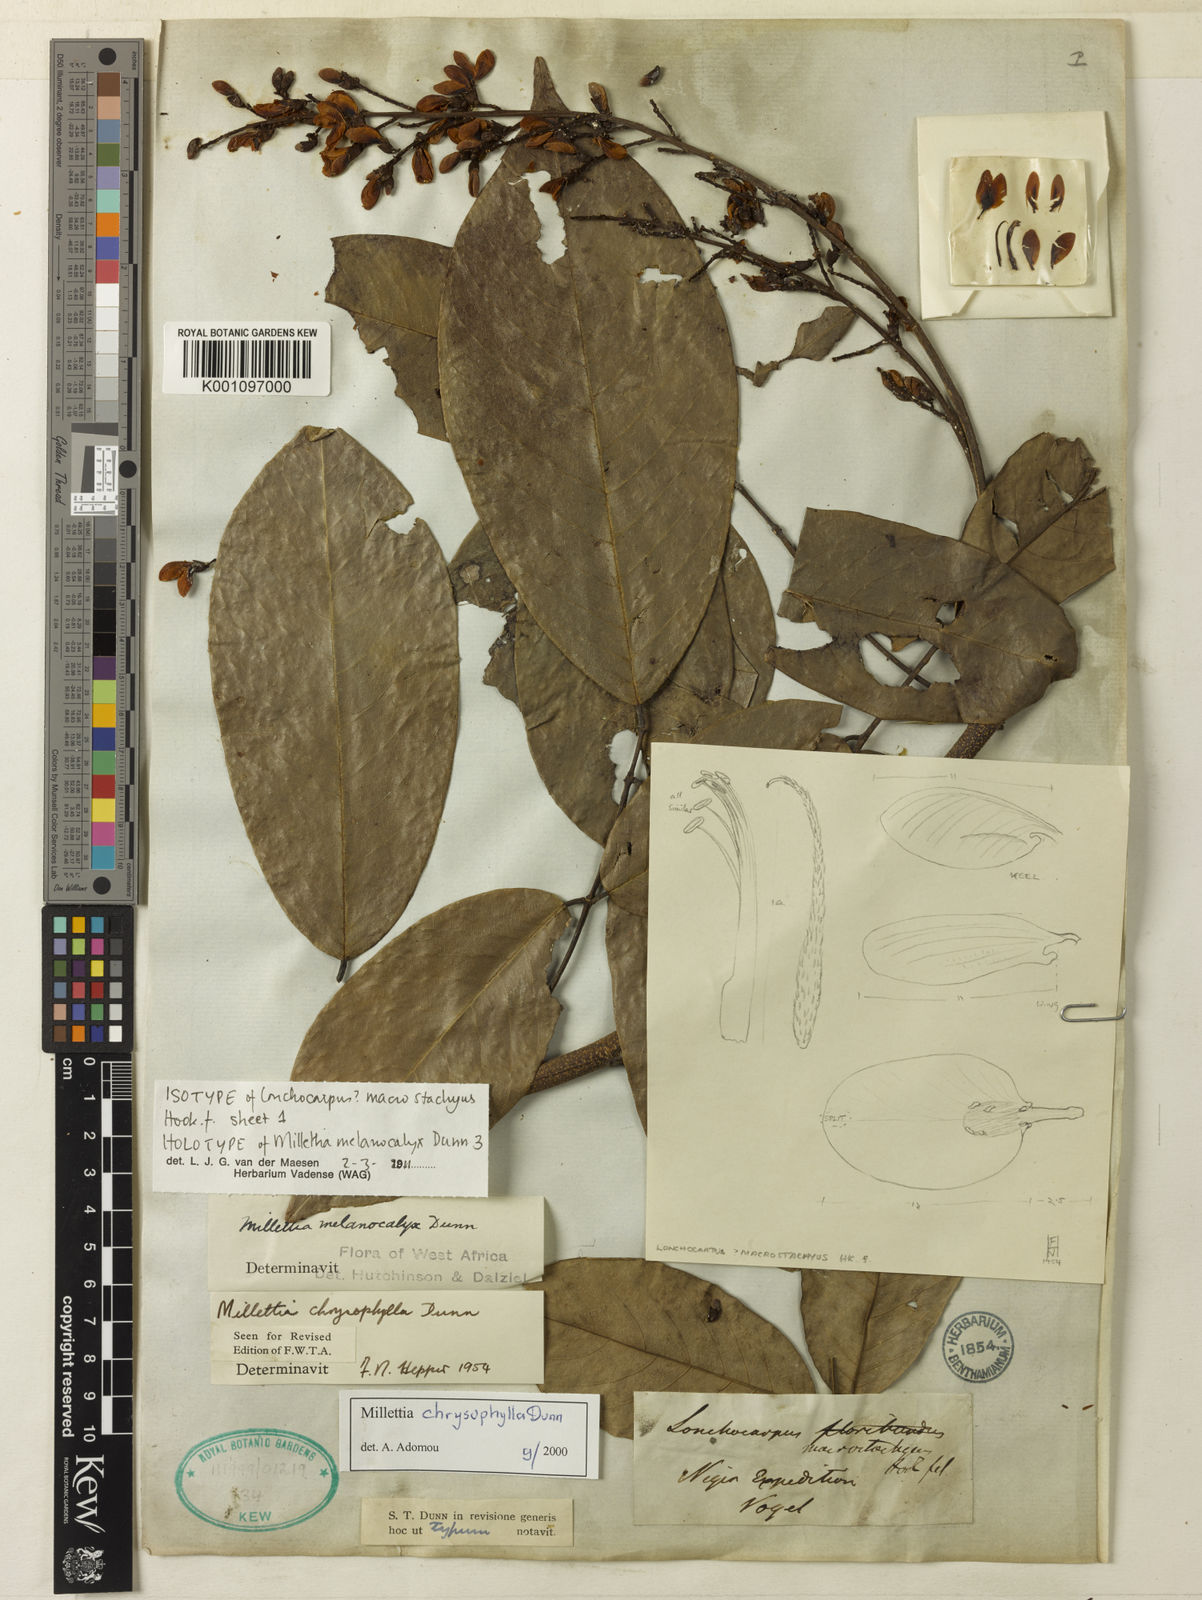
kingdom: Plantae
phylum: Tracheophyta
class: Magnoliopsida
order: Fabales
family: Fabaceae
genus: Millettia
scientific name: Millettia chrysophylla
